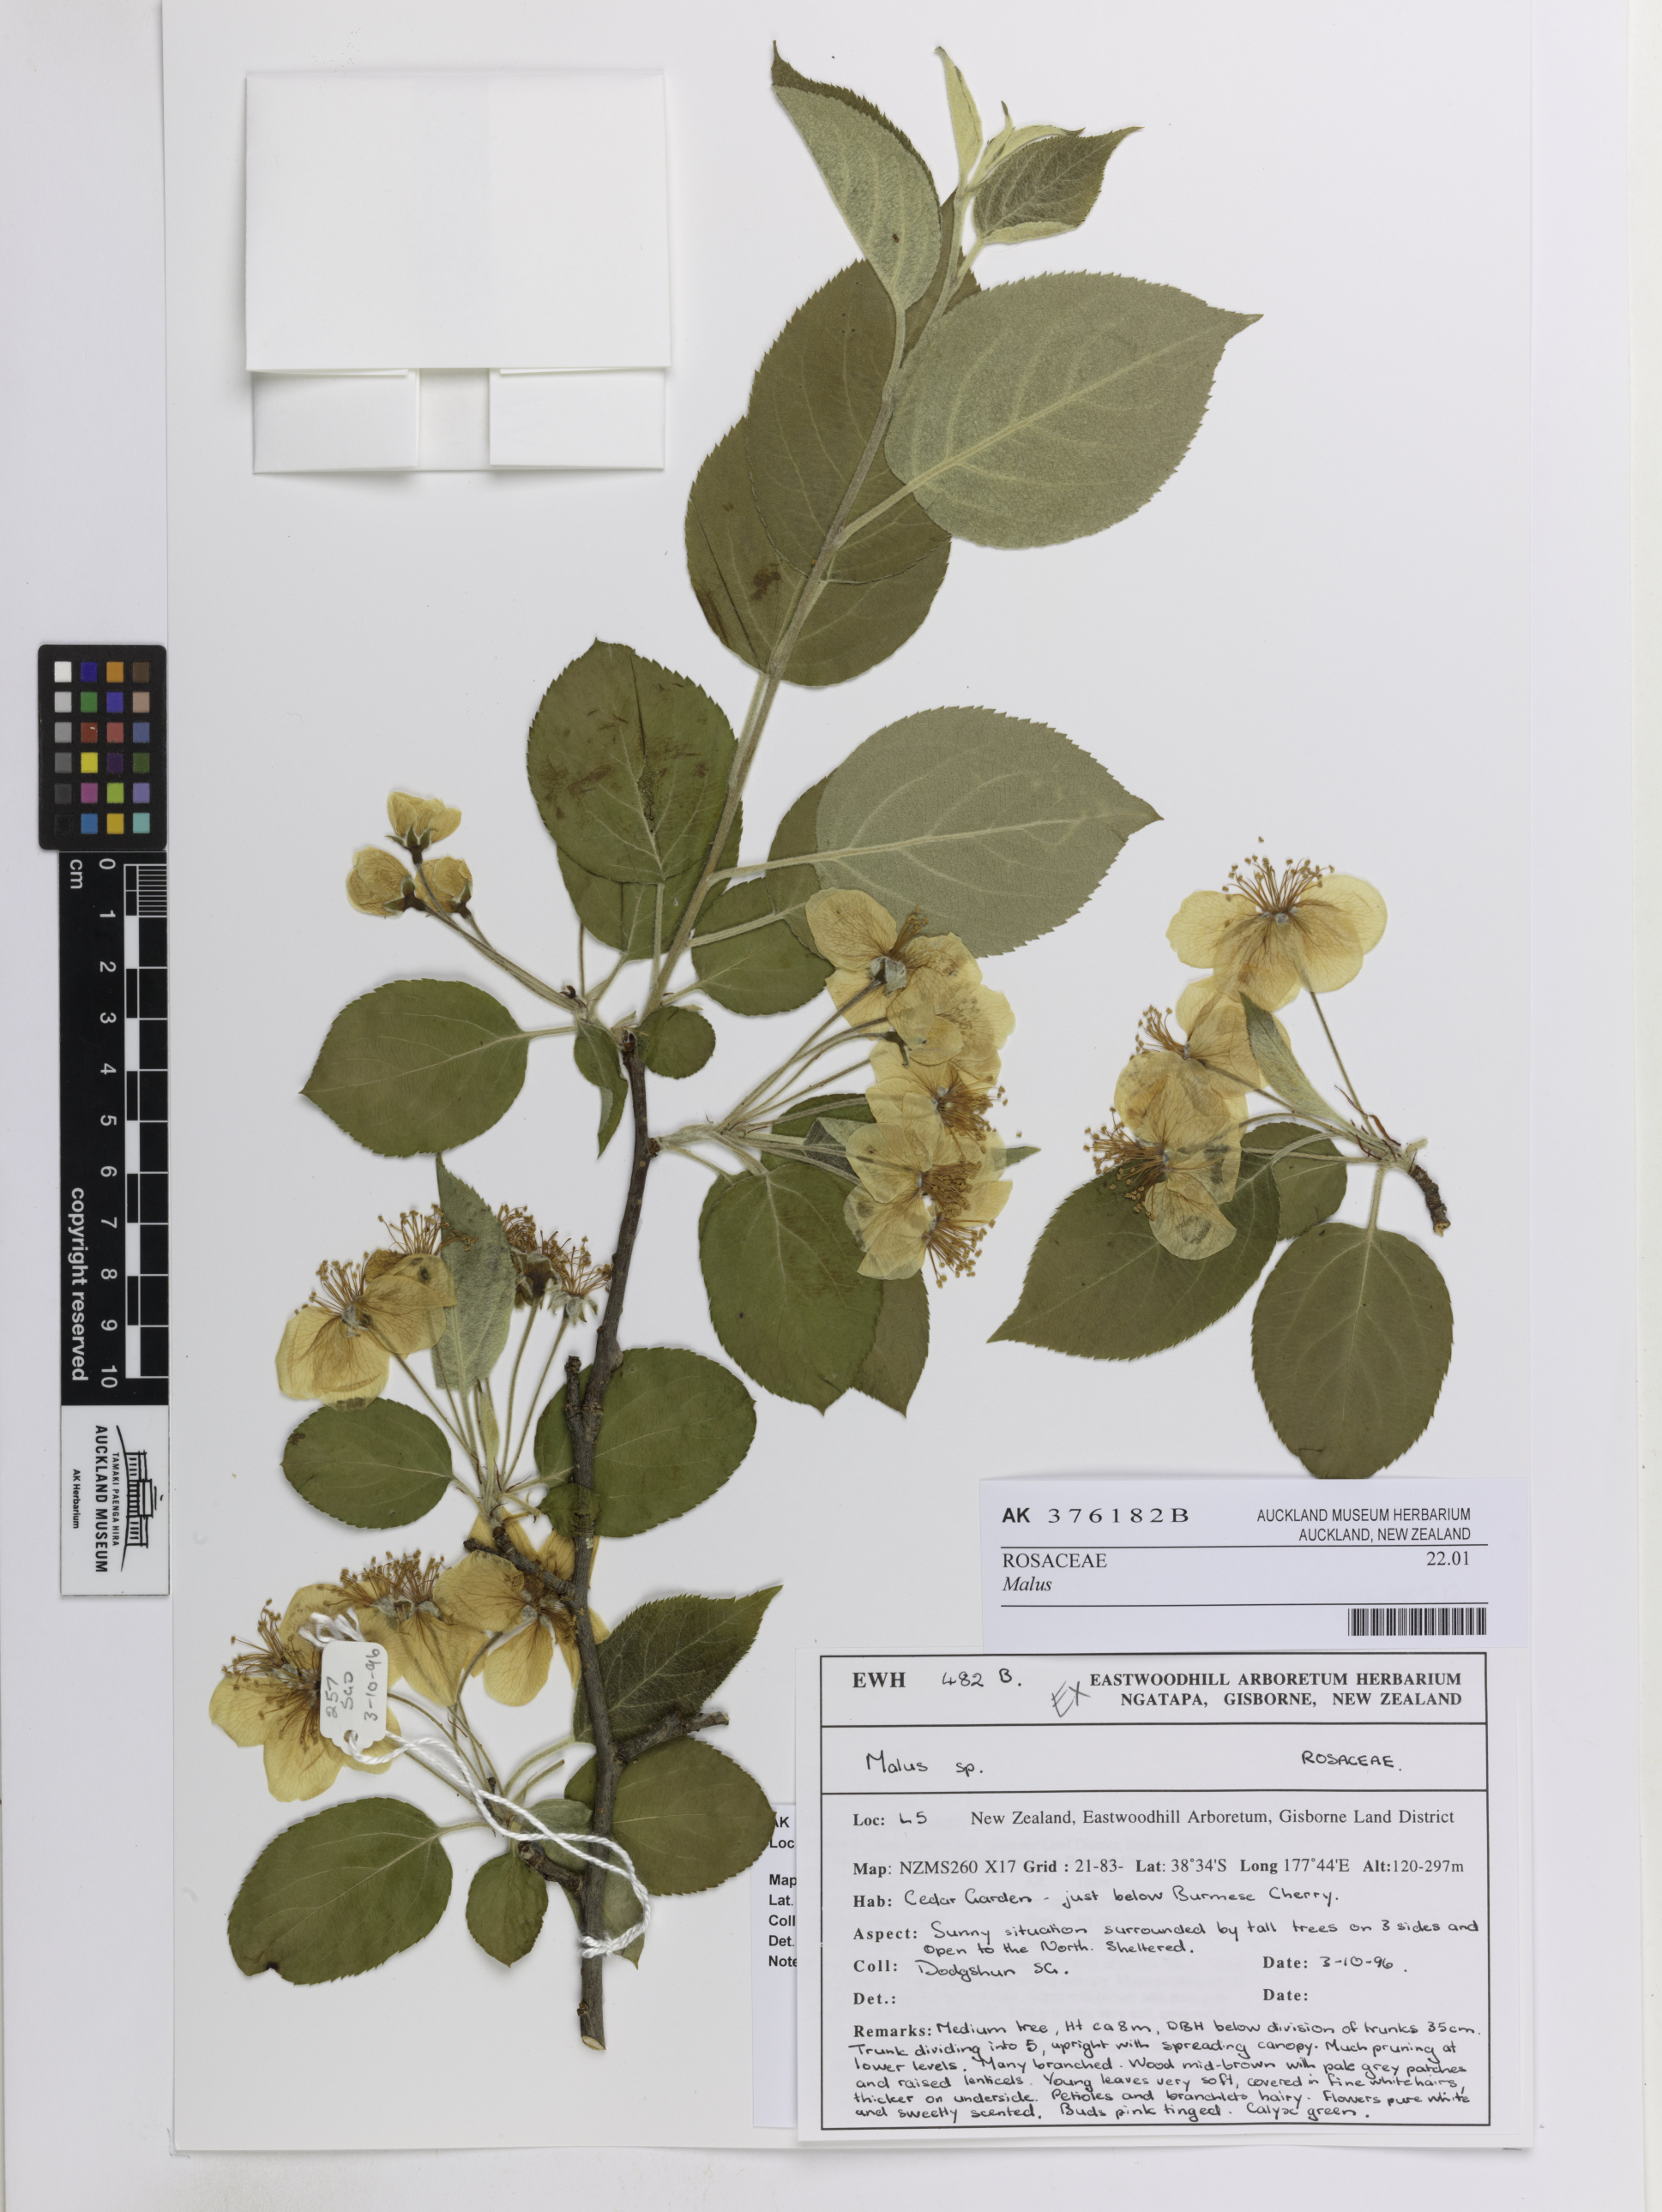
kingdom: Plantae
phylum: Tracheophyta
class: Magnoliopsida
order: Rosales
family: Rosaceae
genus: Malus
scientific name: Malus
